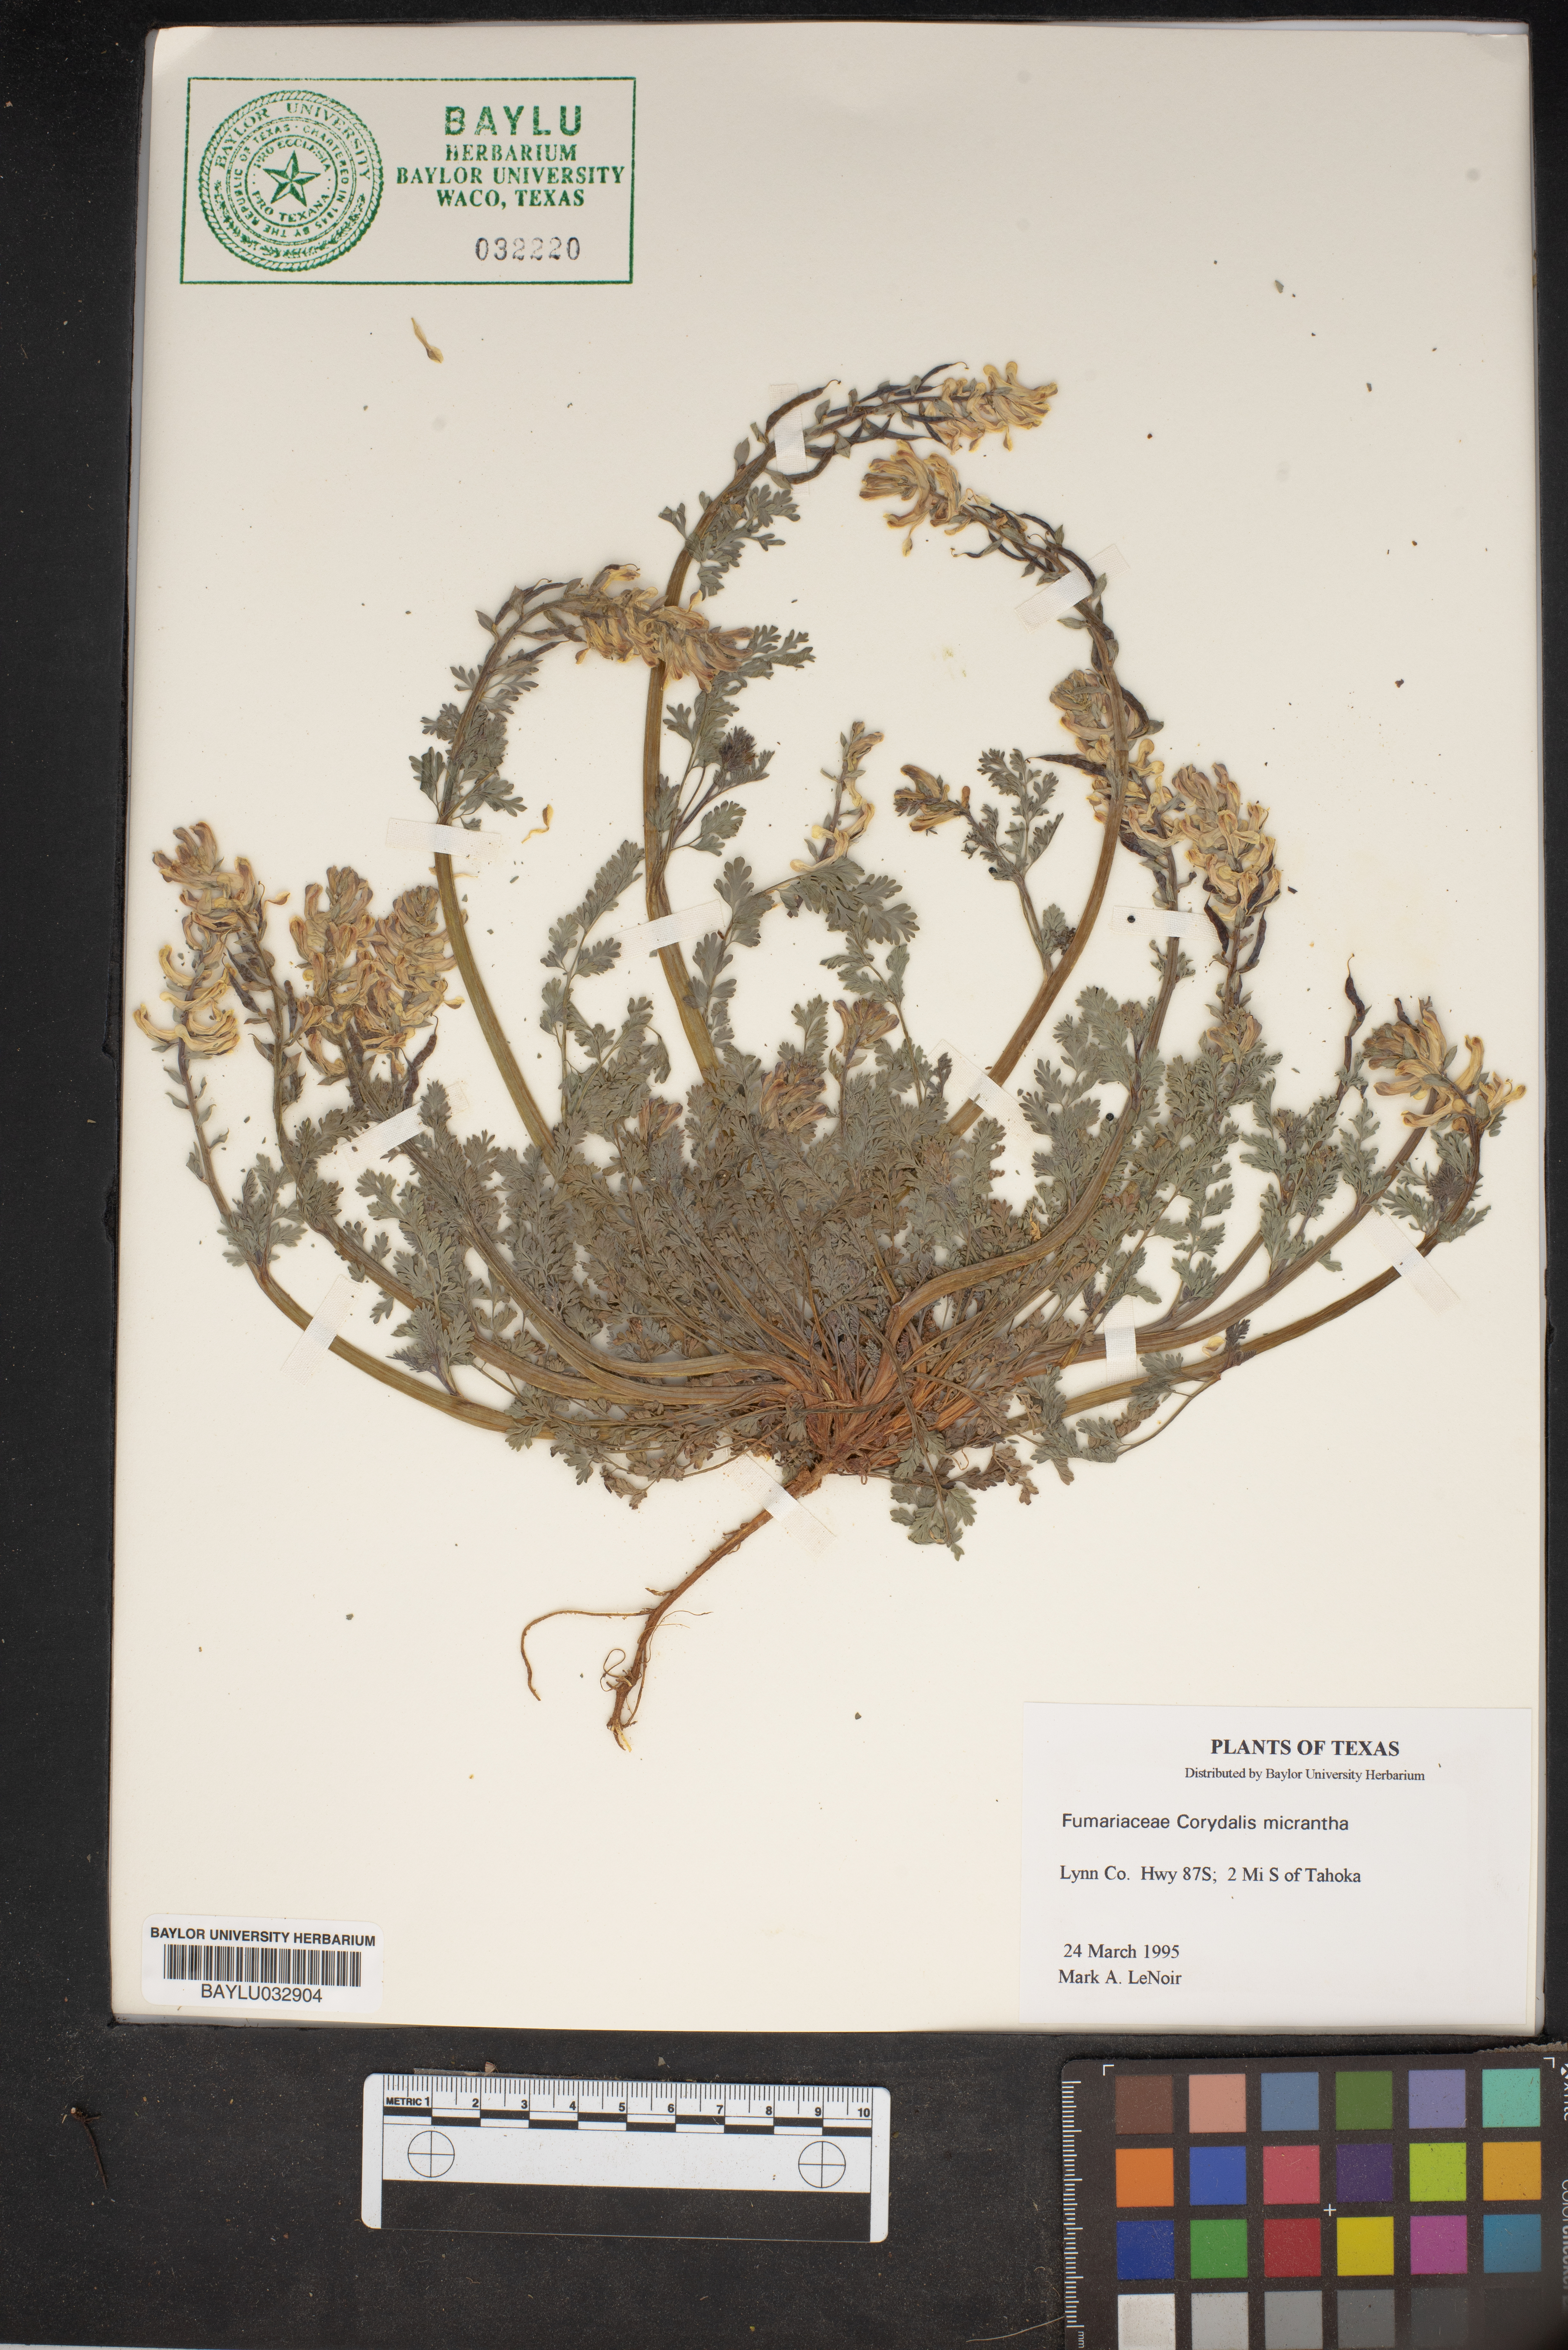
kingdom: Plantae
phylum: Tracheophyta
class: Magnoliopsida
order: Ranunculales
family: Papaveraceae
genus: Corydalis
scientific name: Corydalis micrantha
